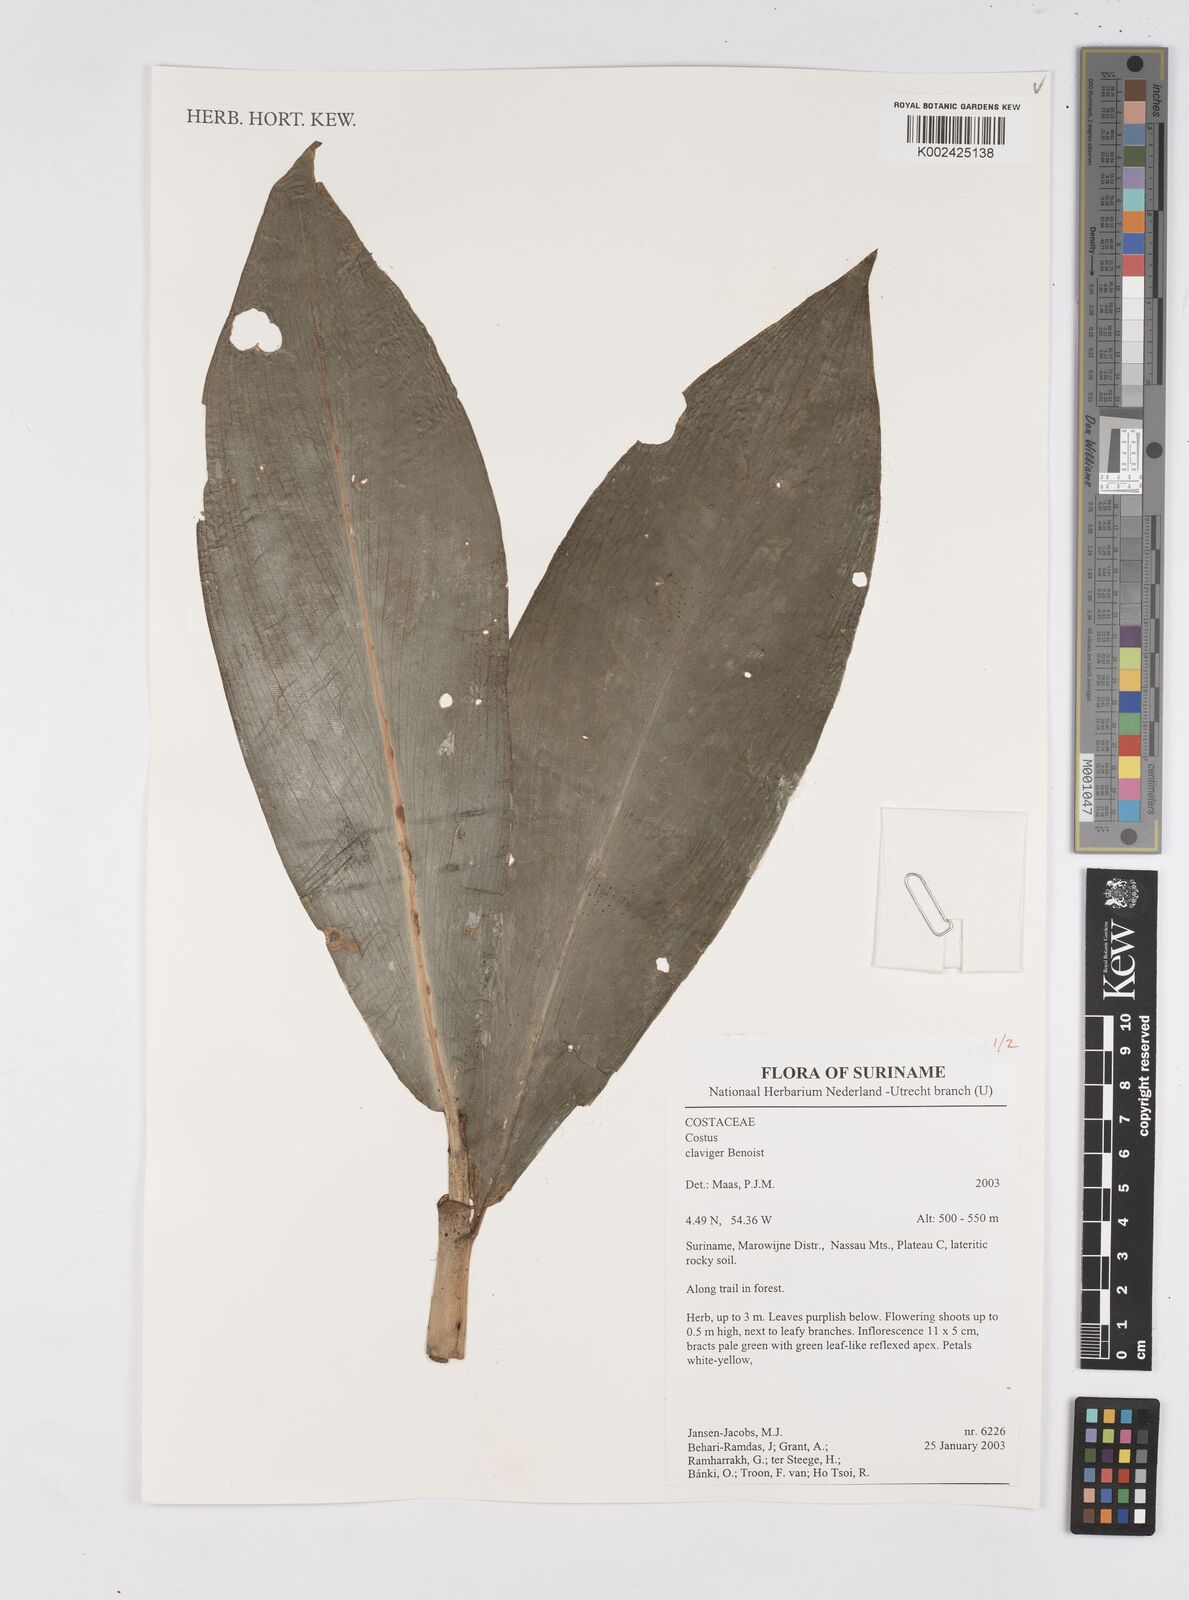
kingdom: Plantae
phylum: Tracheophyta
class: Liliopsida
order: Zingiberales
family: Costaceae
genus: Costus
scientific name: Costus claviger
